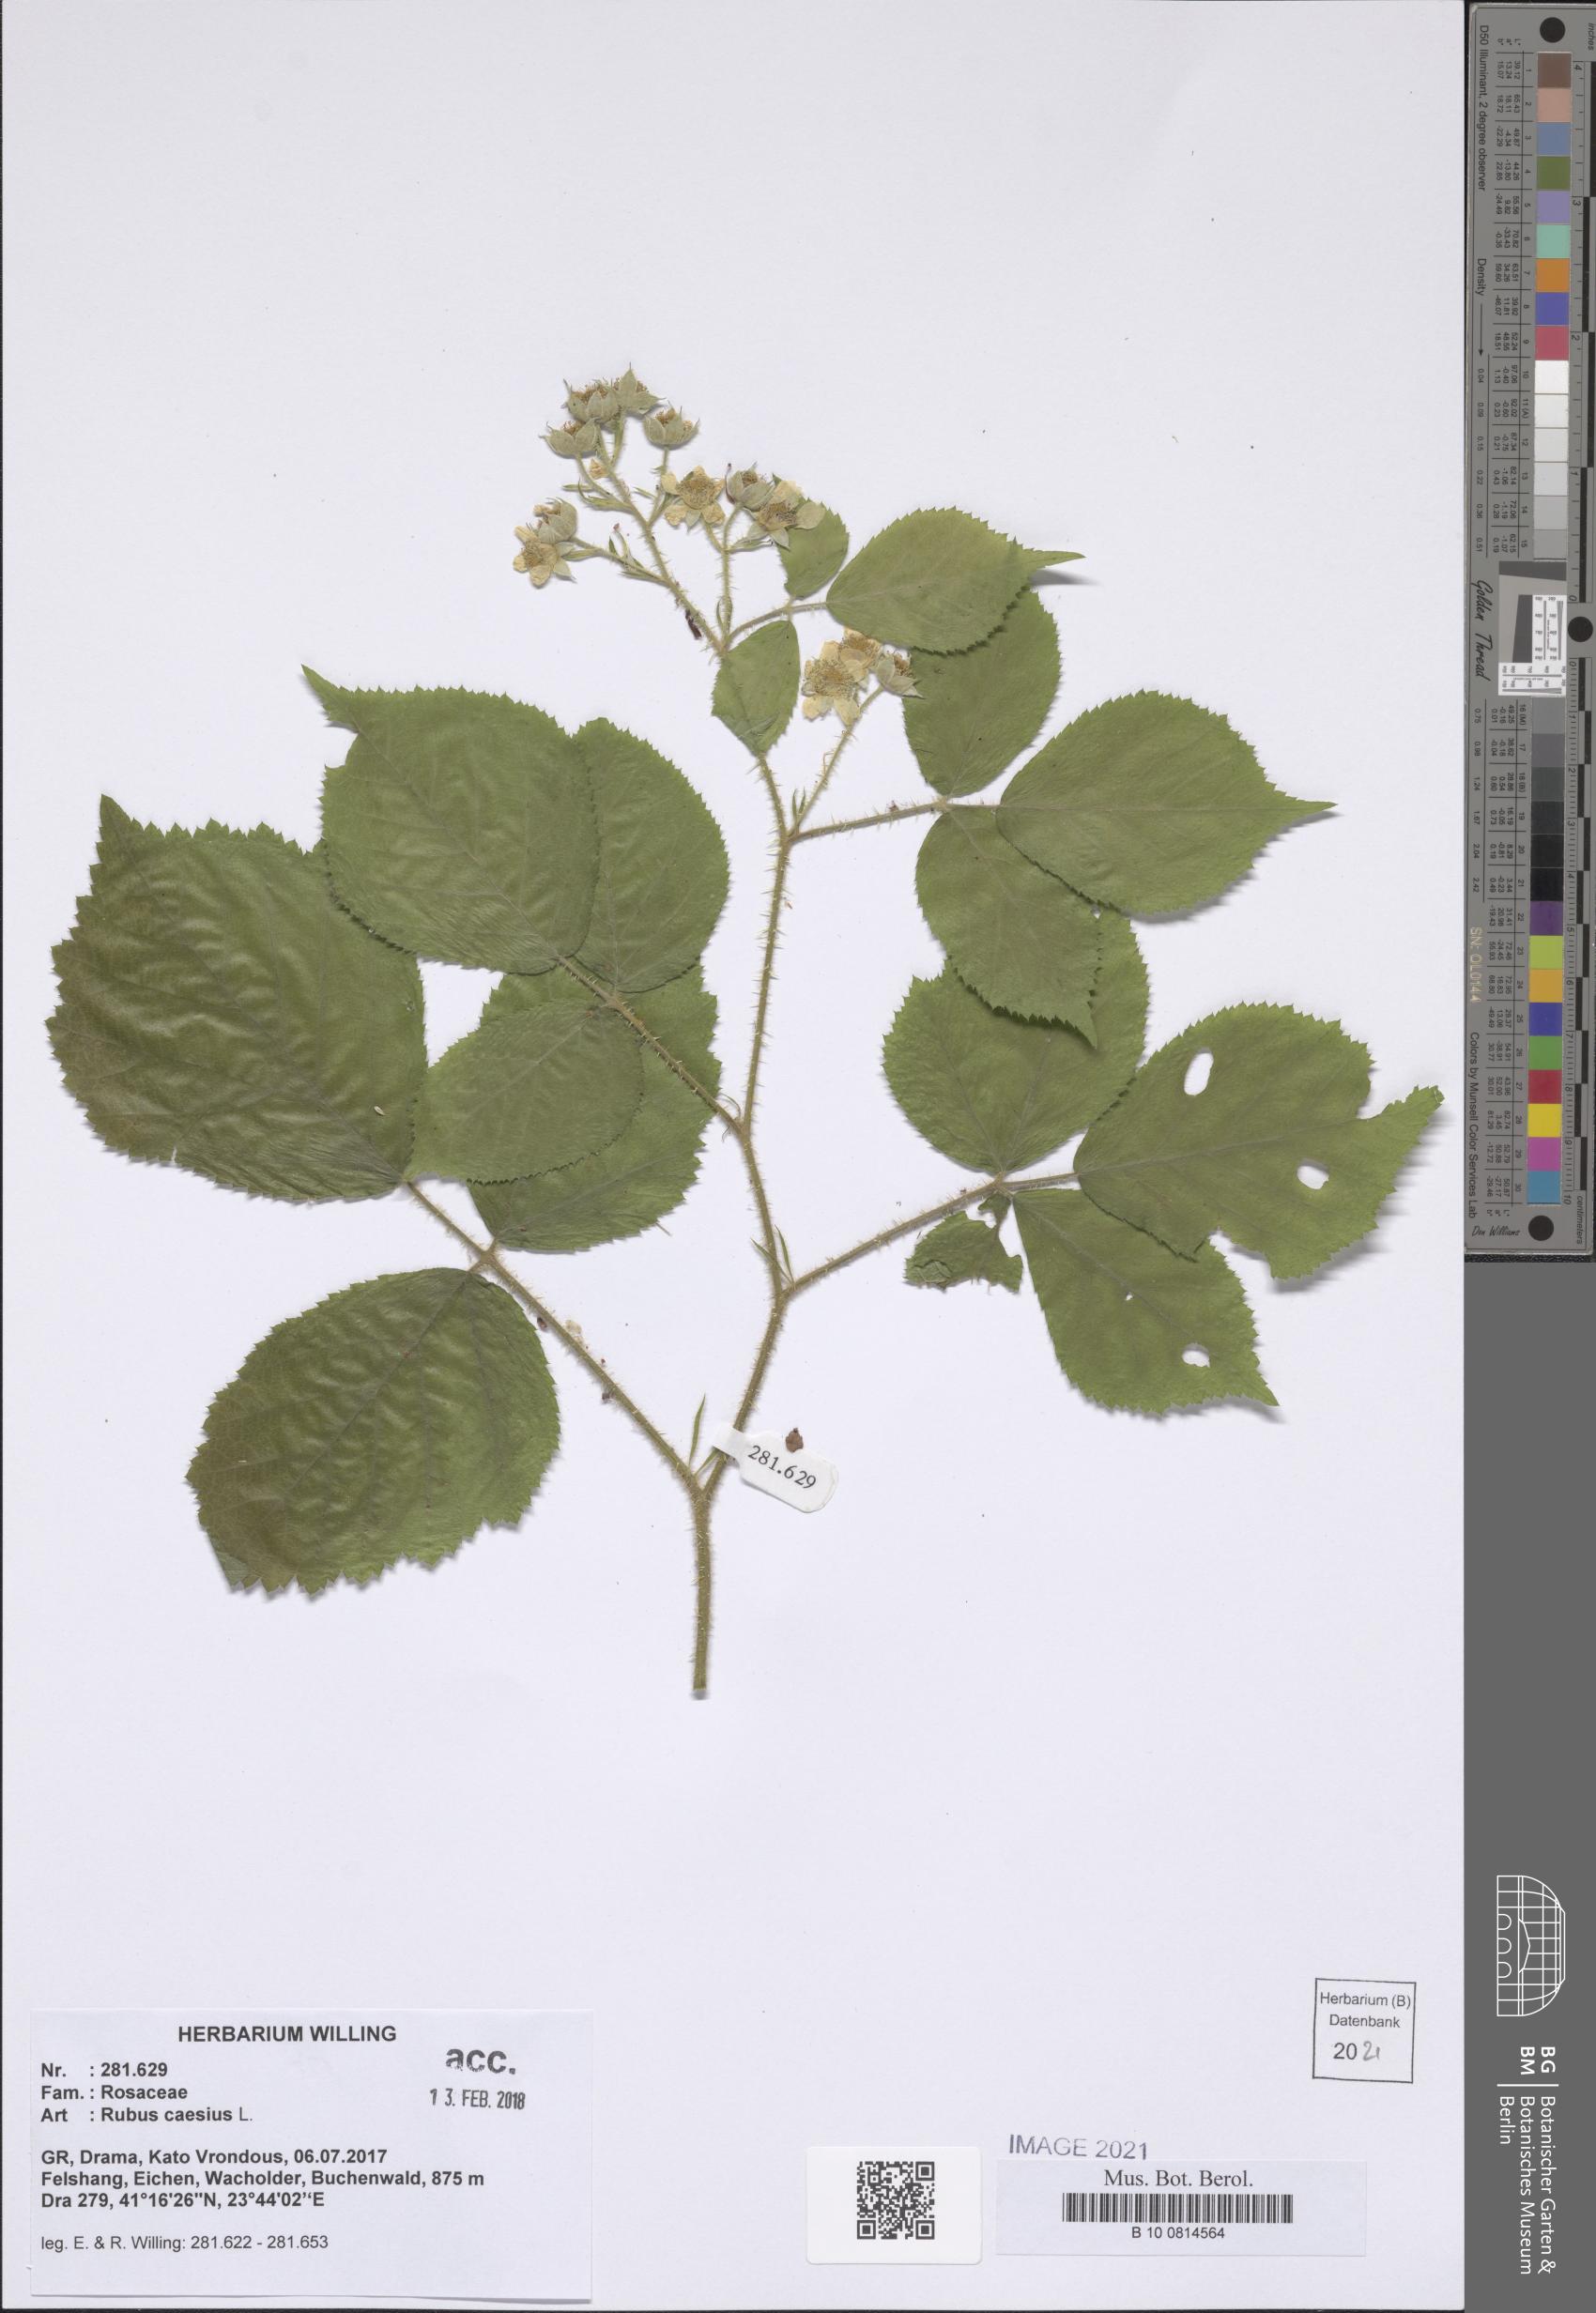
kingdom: Plantae
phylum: Tracheophyta
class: Magnoliopsida
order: Rosales
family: Rosaceae
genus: Rubus
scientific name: Rubus caesius
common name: Dewberry
